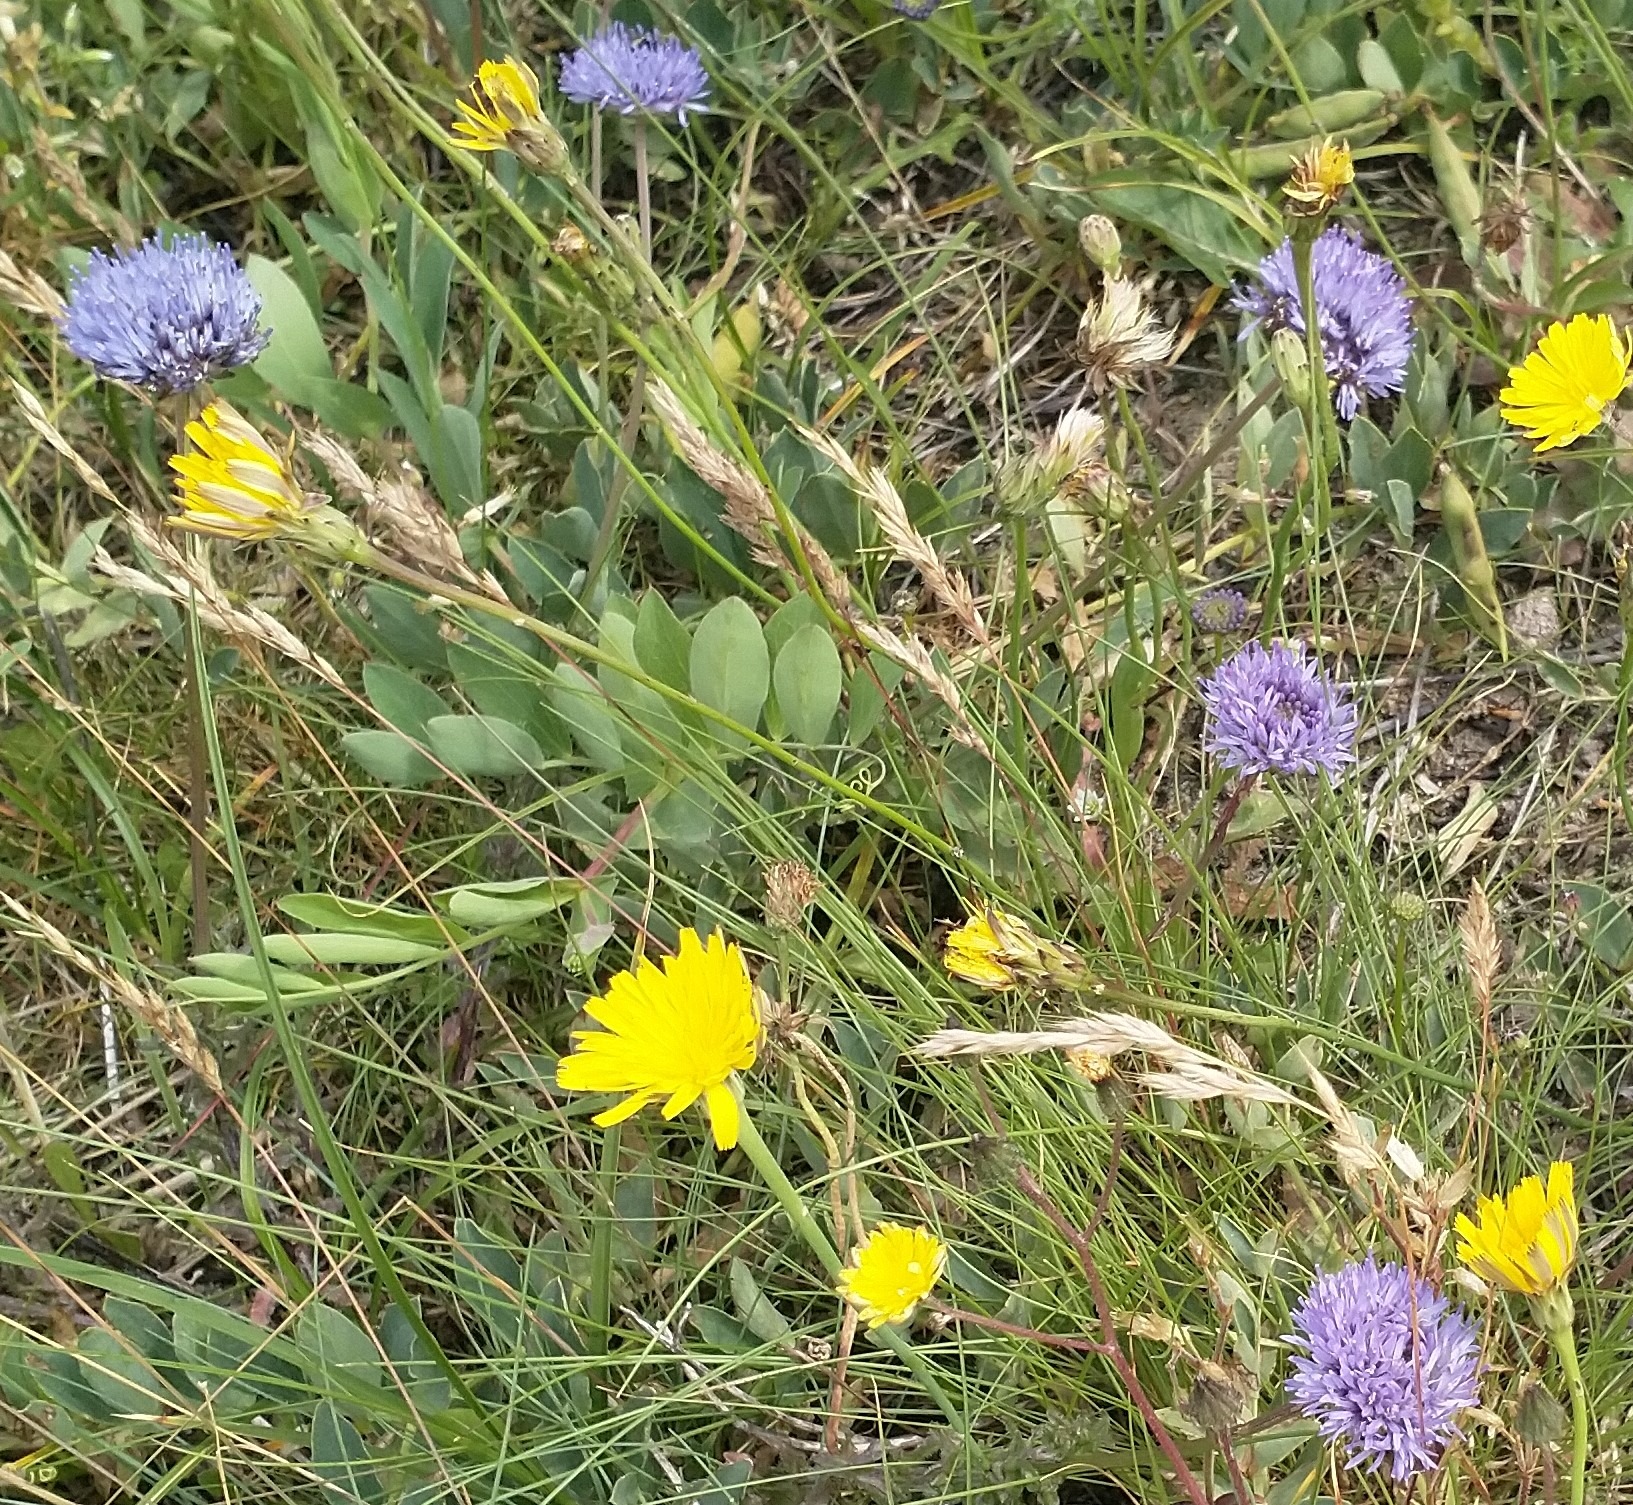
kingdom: Plantae
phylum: Tracheophyta
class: Magnoliopsida
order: Asterales
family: Campanulaceae
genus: Jasione
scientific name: Jasione montana
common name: Blåmunke
